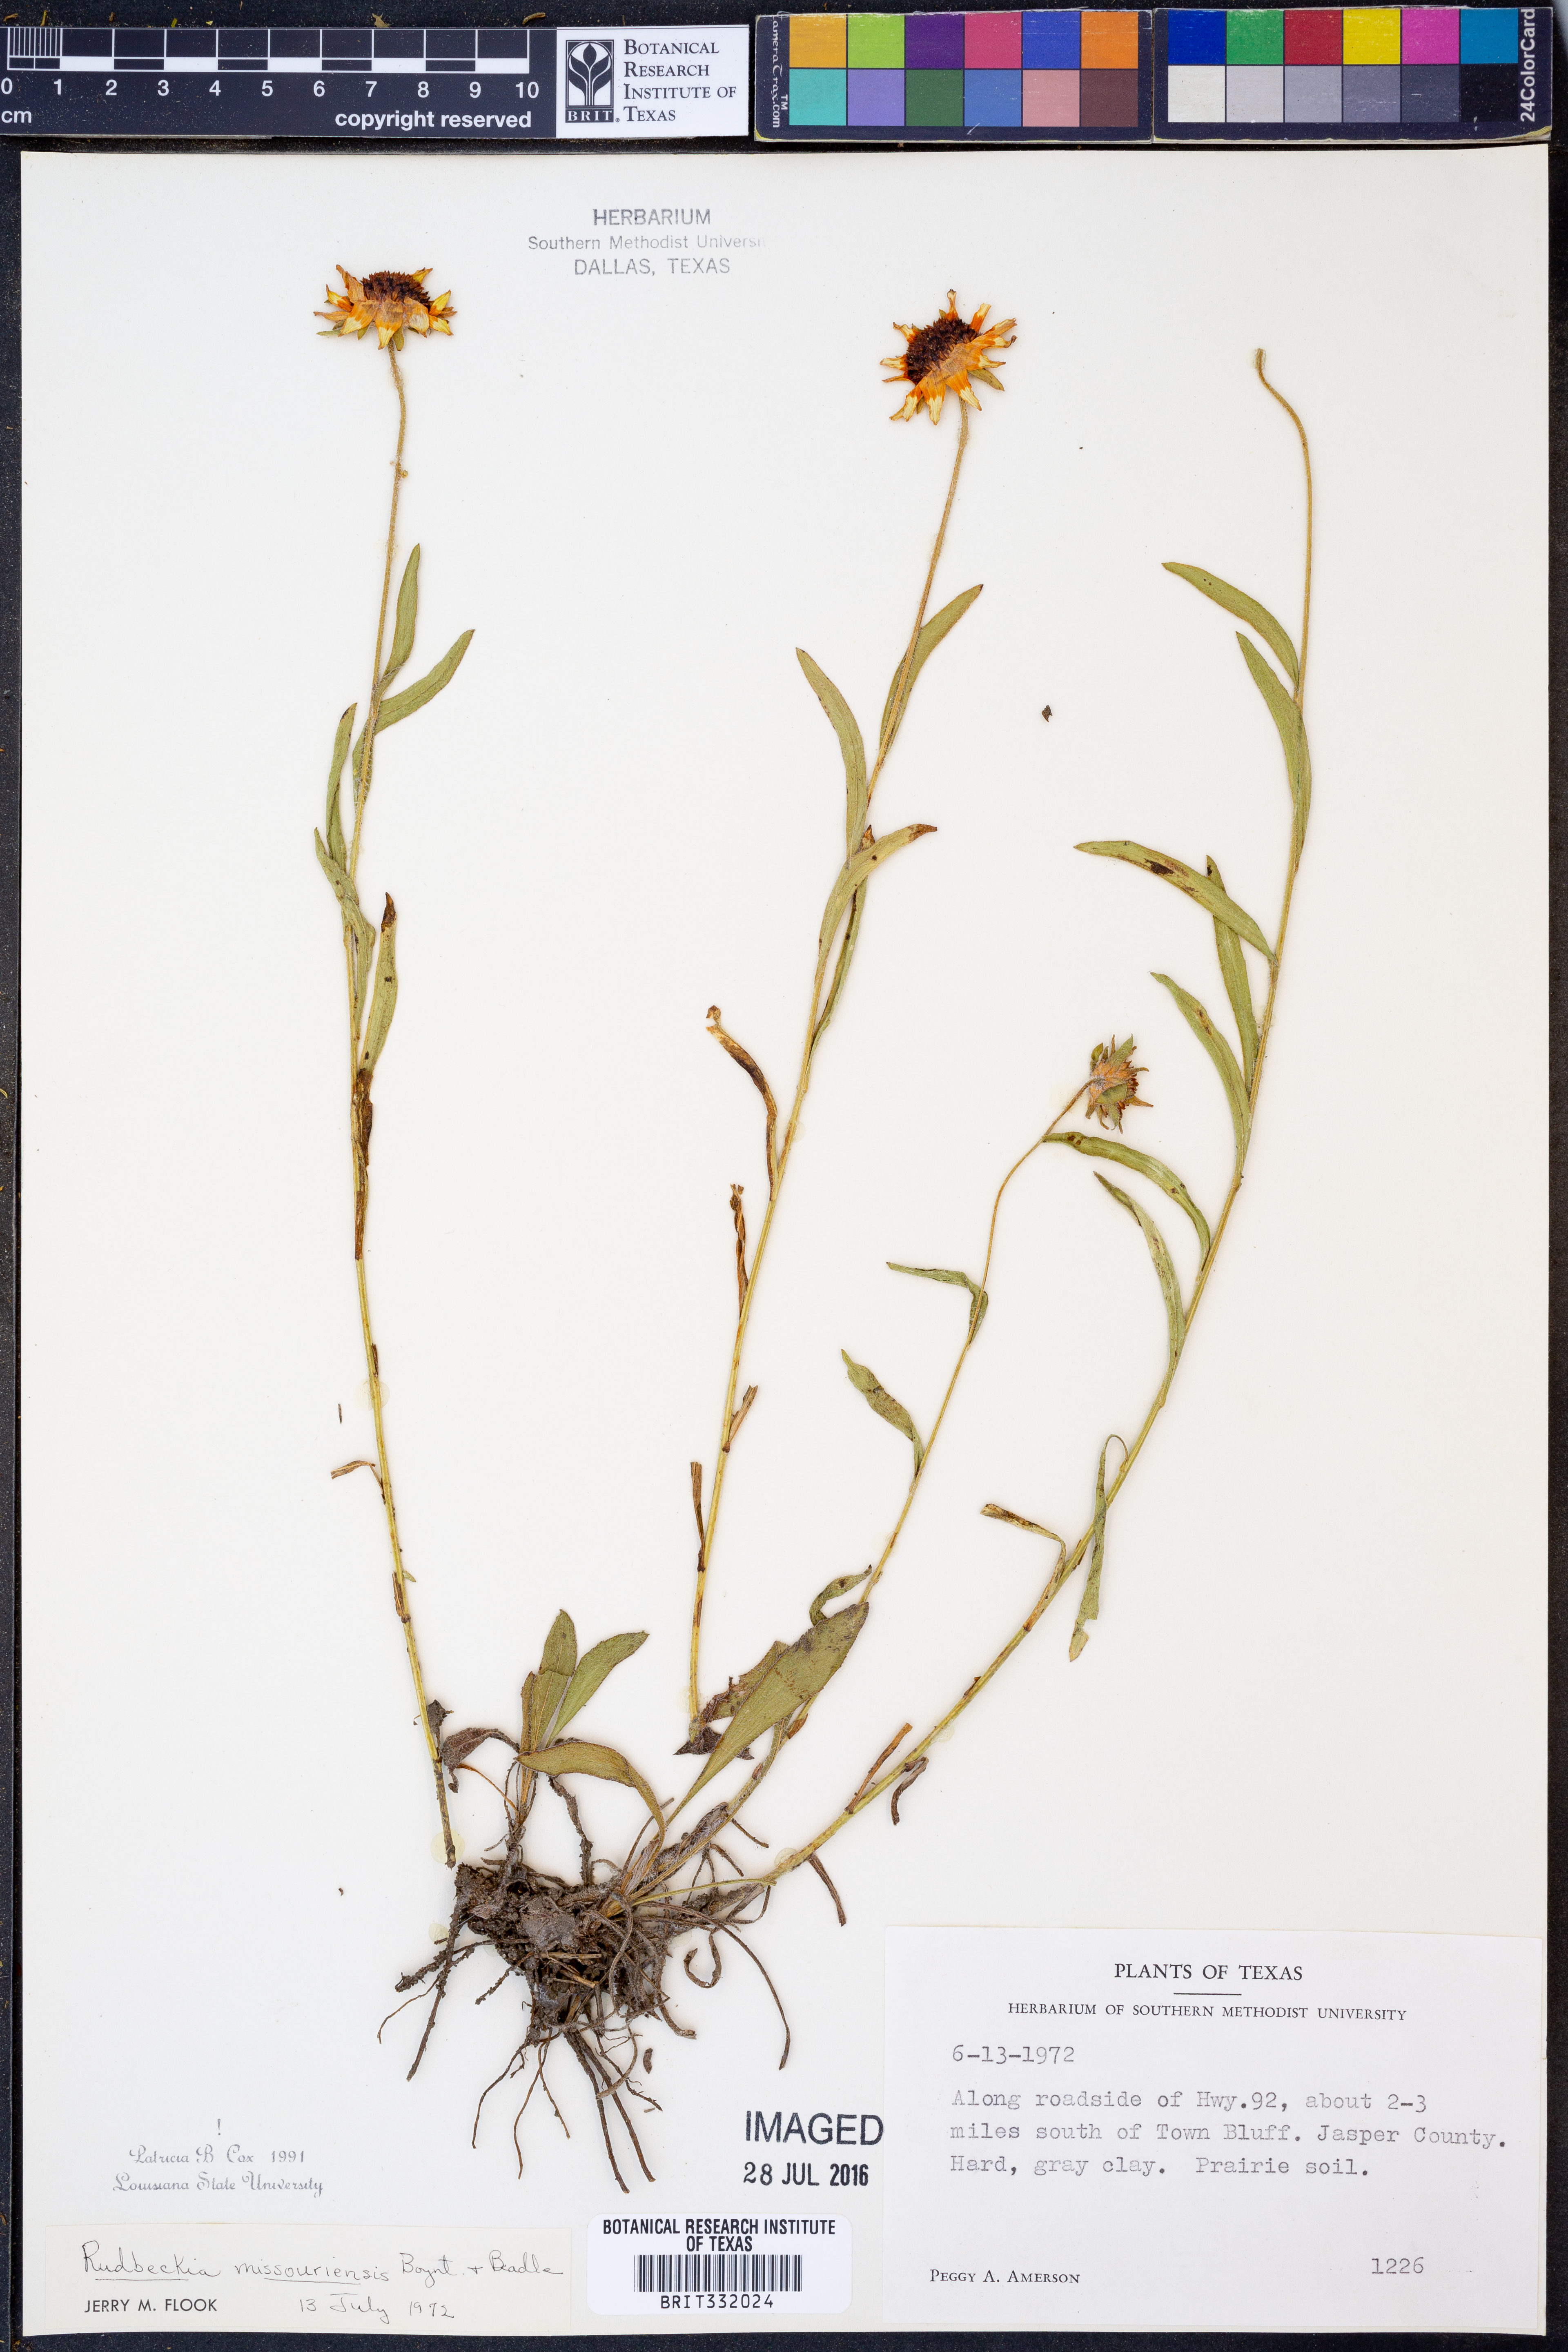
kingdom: Plantae
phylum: Tracheophyta
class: Magnoliopsida
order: Asterales
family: Asteraceae
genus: Rudbeckia
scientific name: Rudbeckia missouriensis
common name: Missouri coneflower
